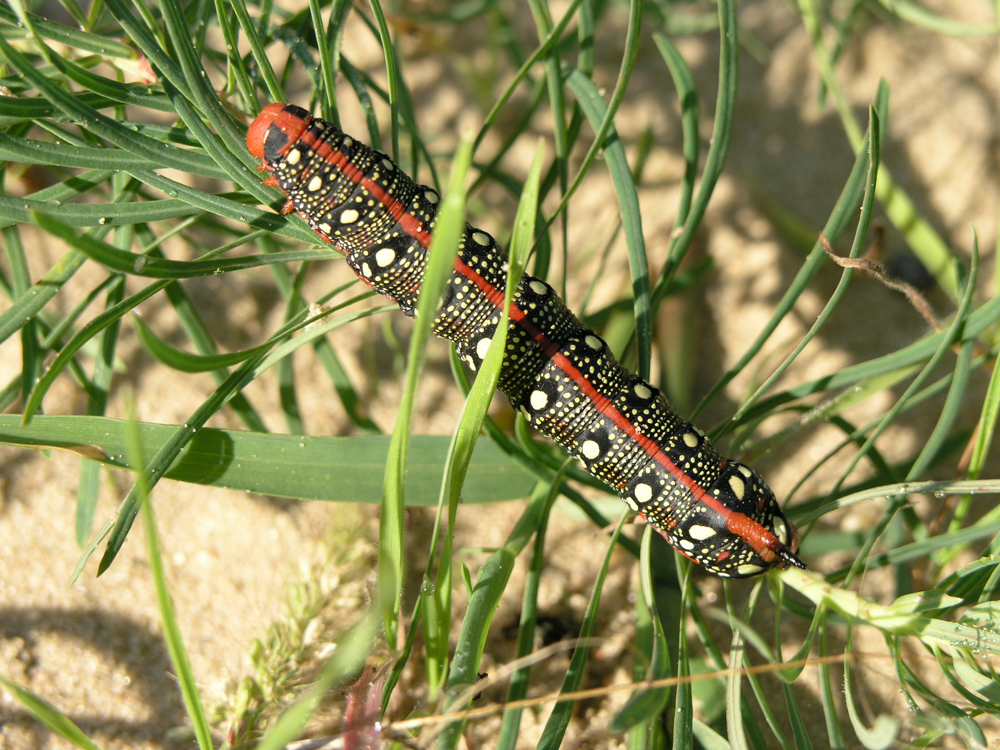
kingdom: Animalia
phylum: Arthropoda
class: Insecta
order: Lepidoptera
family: Sphingidae
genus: Hyles
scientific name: Hyles euphorbiae
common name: Spurge hawk-moth
